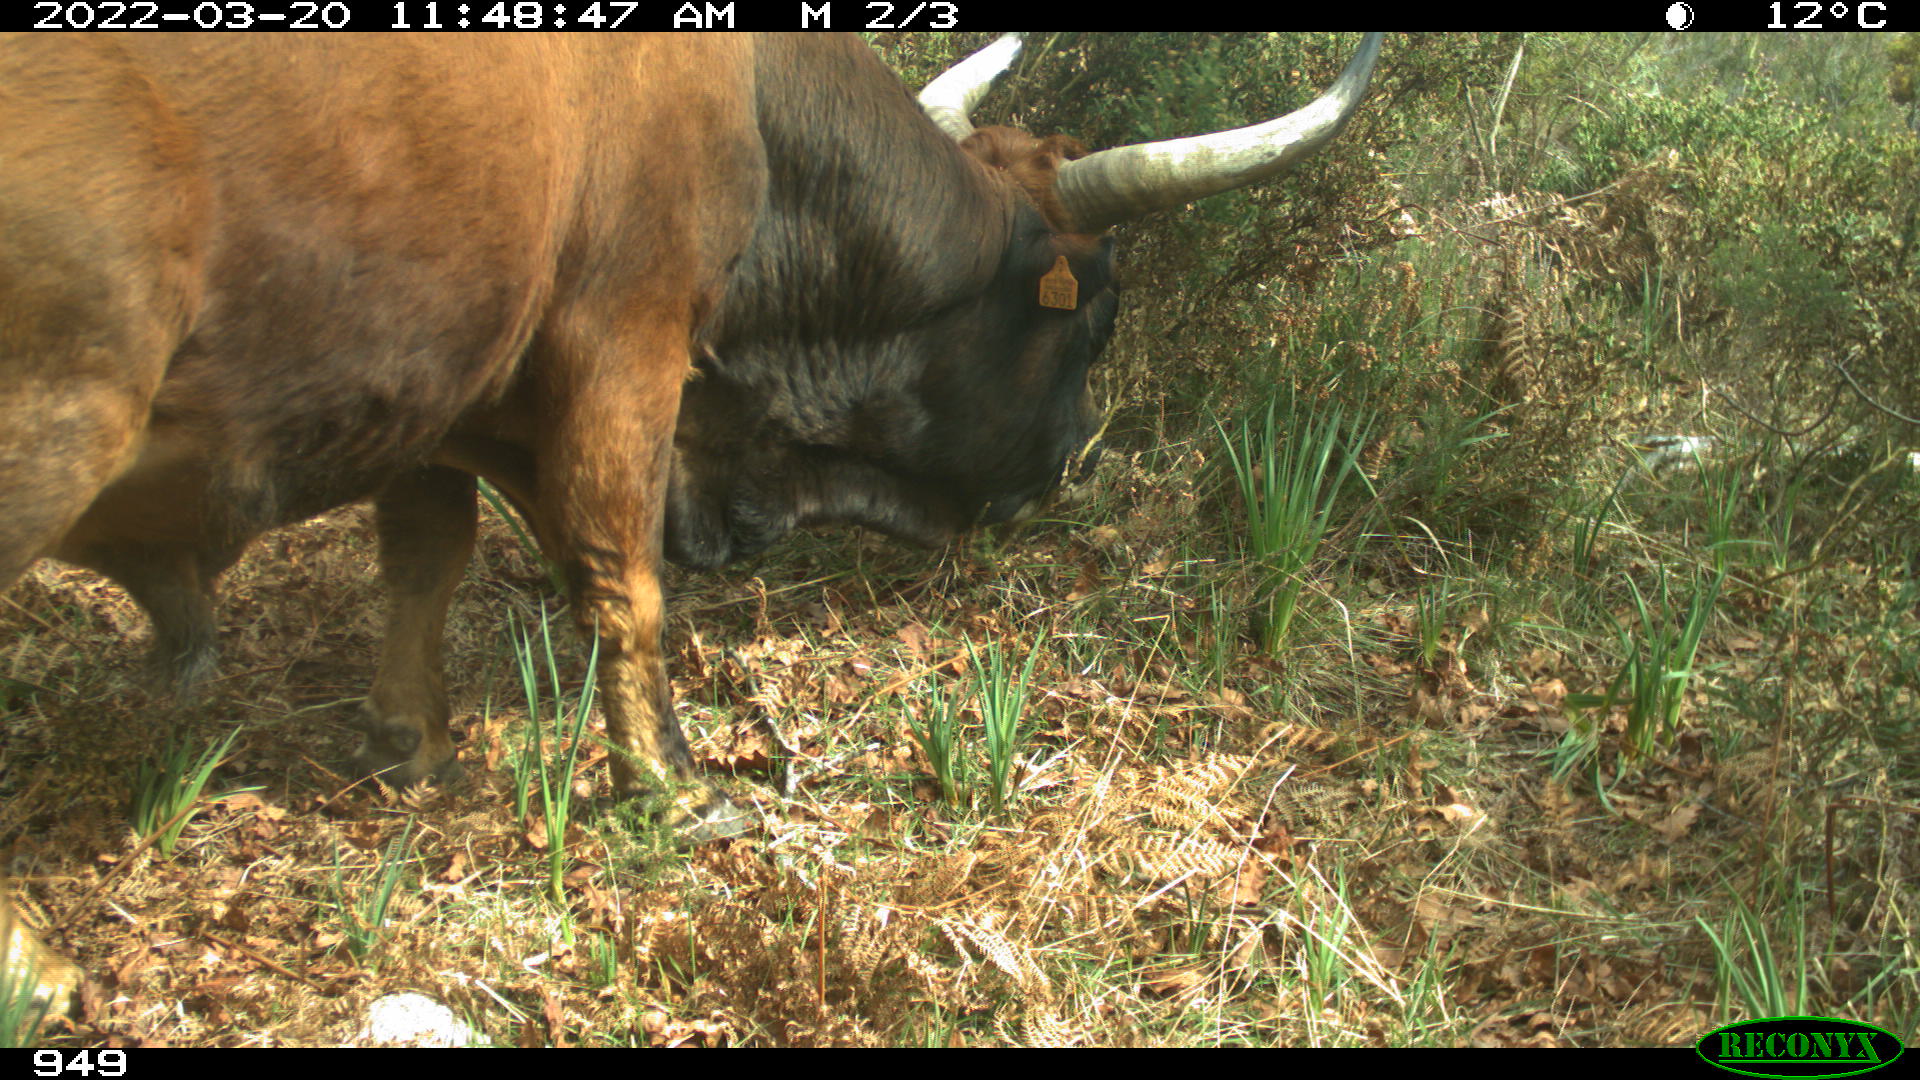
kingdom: Animalia
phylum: Chordata
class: Mammalia
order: Artiodactyla
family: Bovidae
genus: Bos
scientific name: Bos taurus
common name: Domesticated cattle
